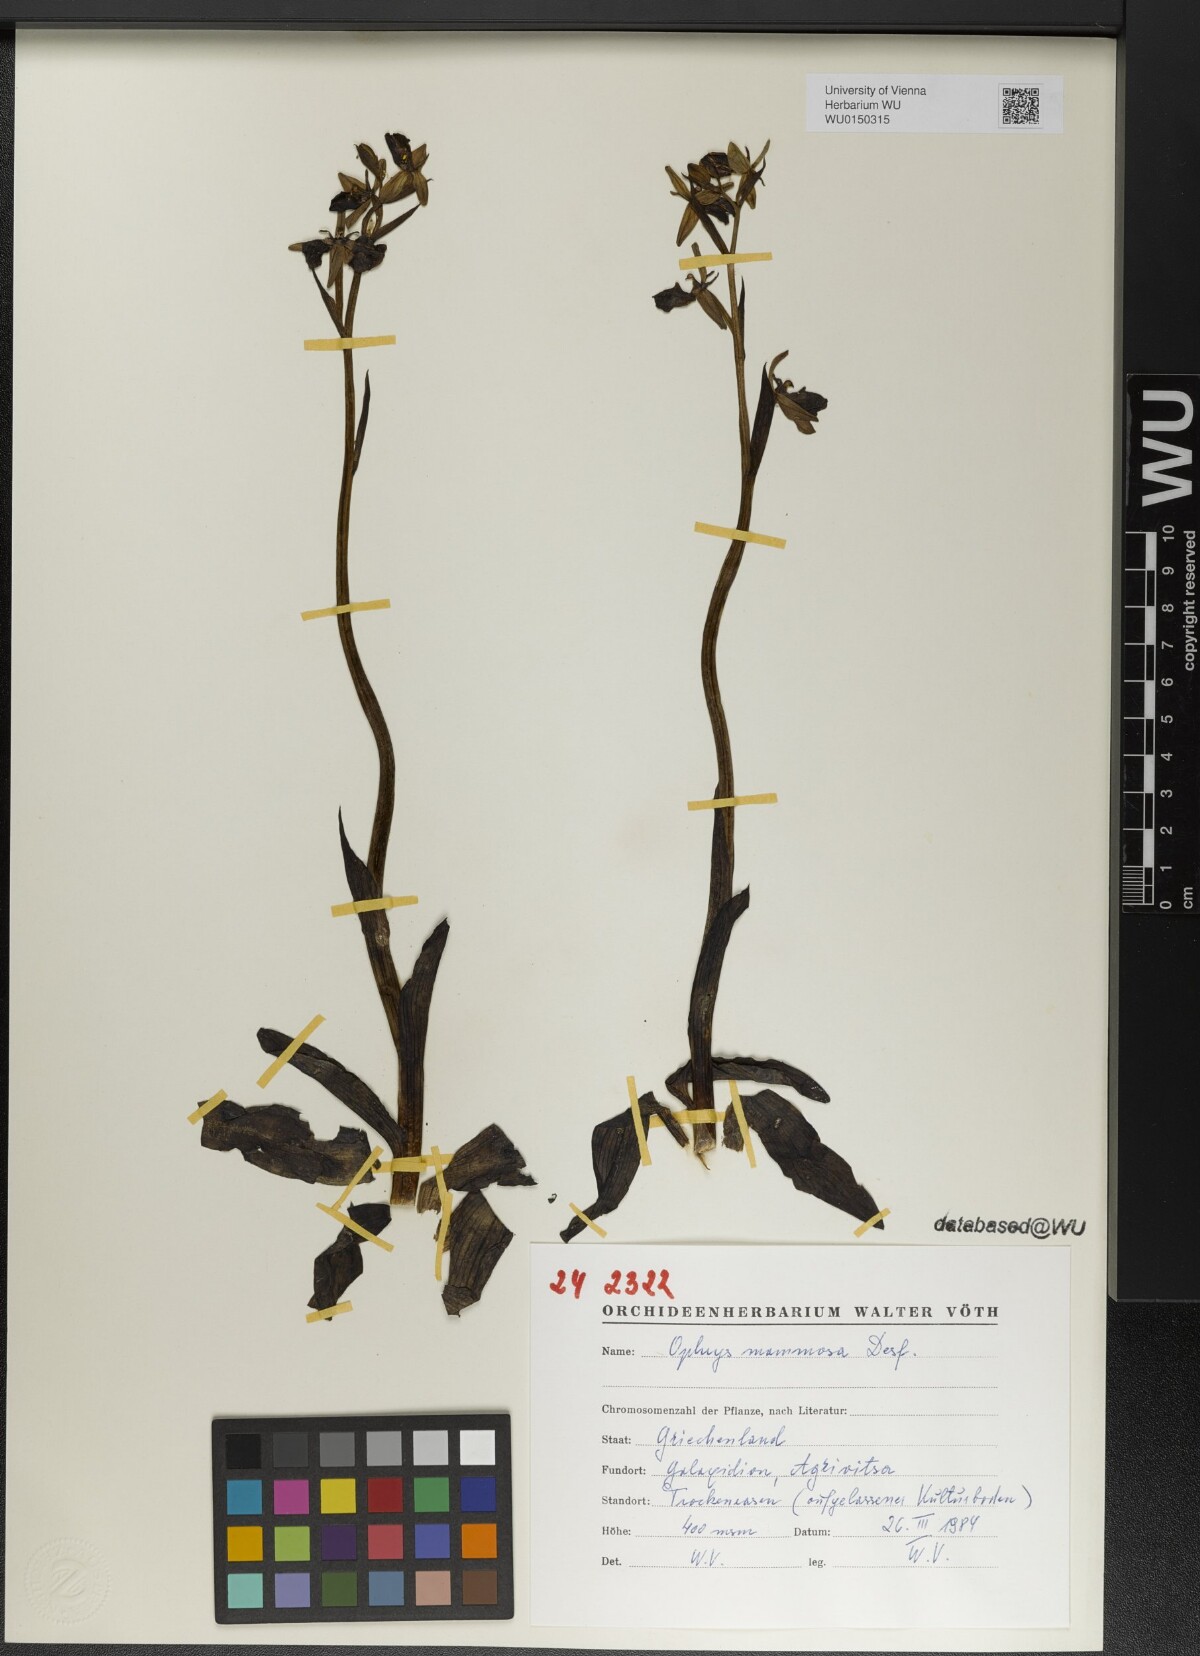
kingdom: Plantae
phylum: Tracheophyta
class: Liliopsida
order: Asparagales
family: Orchidaceae
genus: Ophrys
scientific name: Ophrys sphegodes
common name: Early spider-orchid
